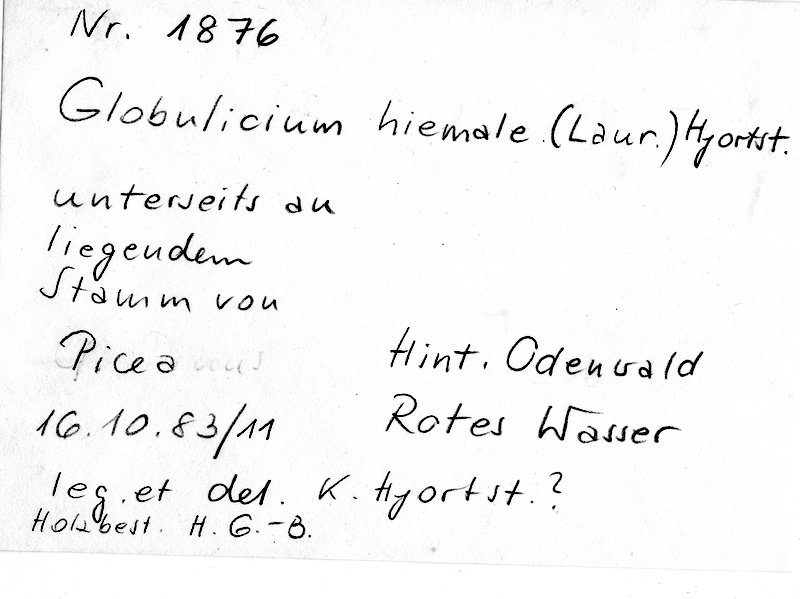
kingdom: Plantae
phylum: Tracheophyta
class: Pinopsida
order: Pinales
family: Pinaceae
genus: Picea
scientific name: Picea
